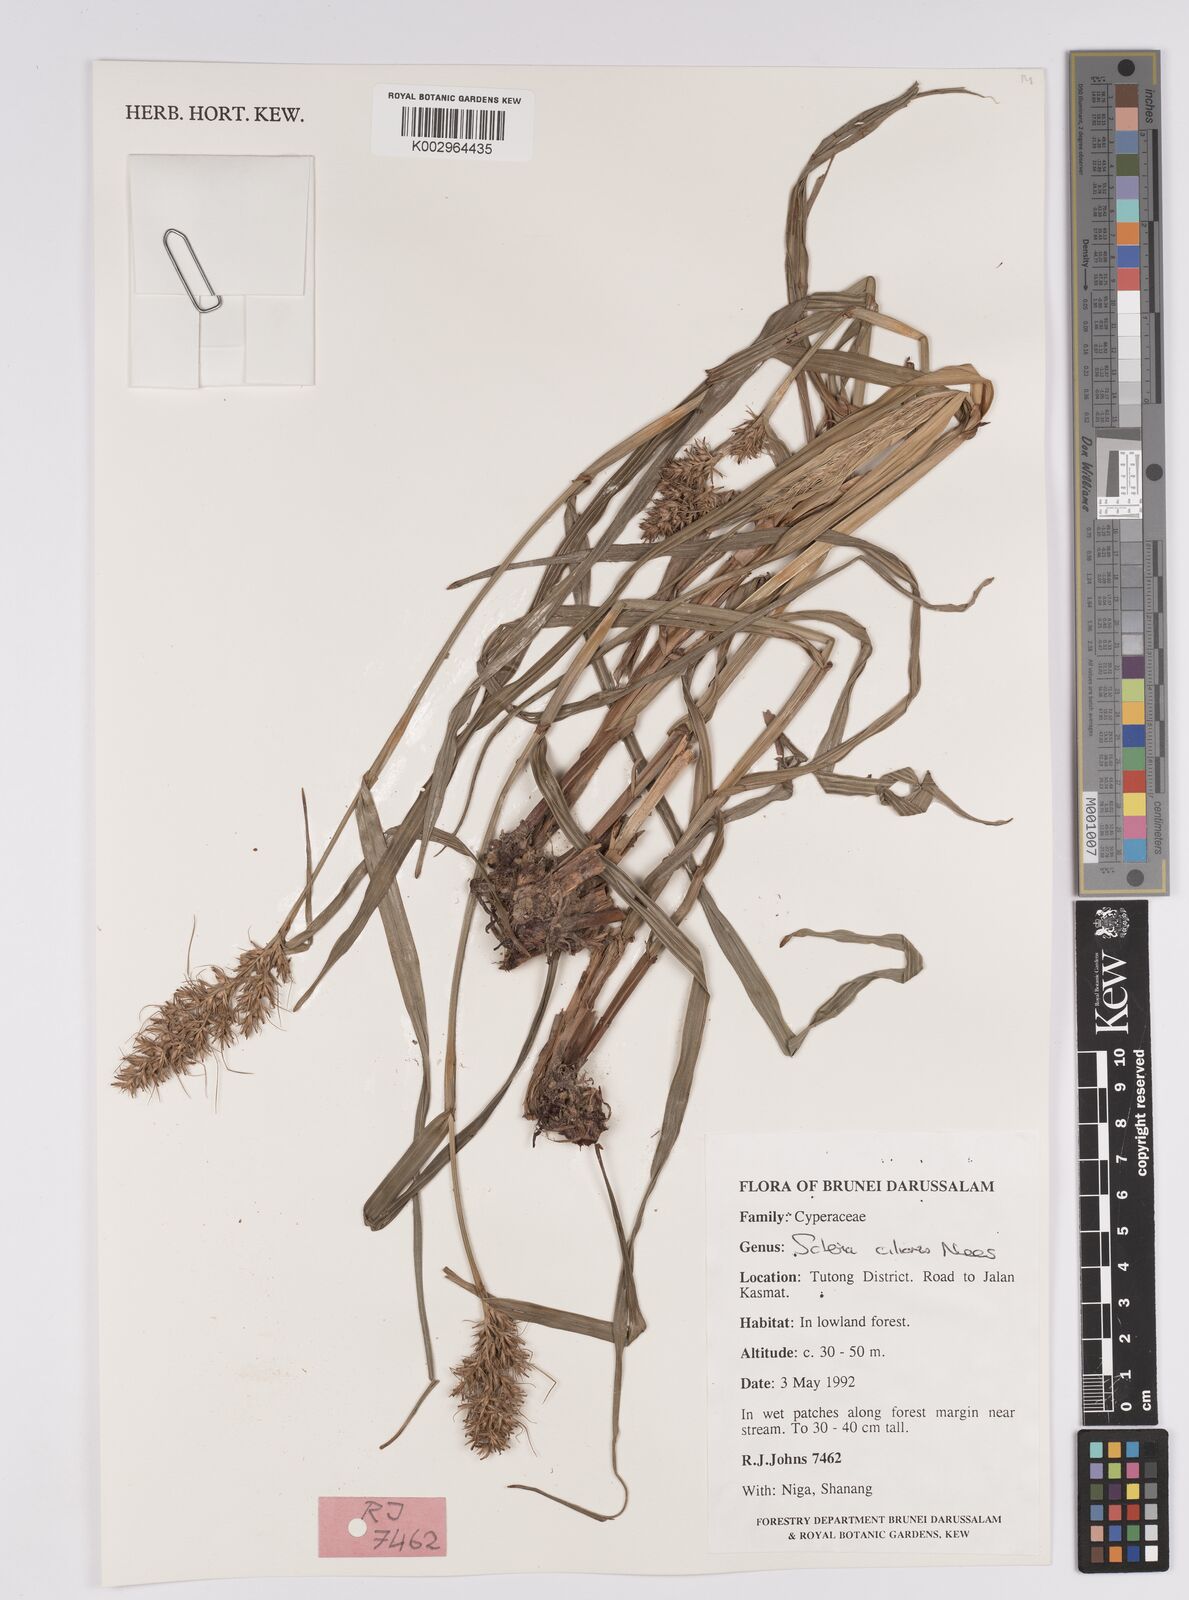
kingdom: Plantae
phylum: Tracheophyta
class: Liliopsida
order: Poales
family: Cyperaceae
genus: Scleria
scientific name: Scleria ciliaris
